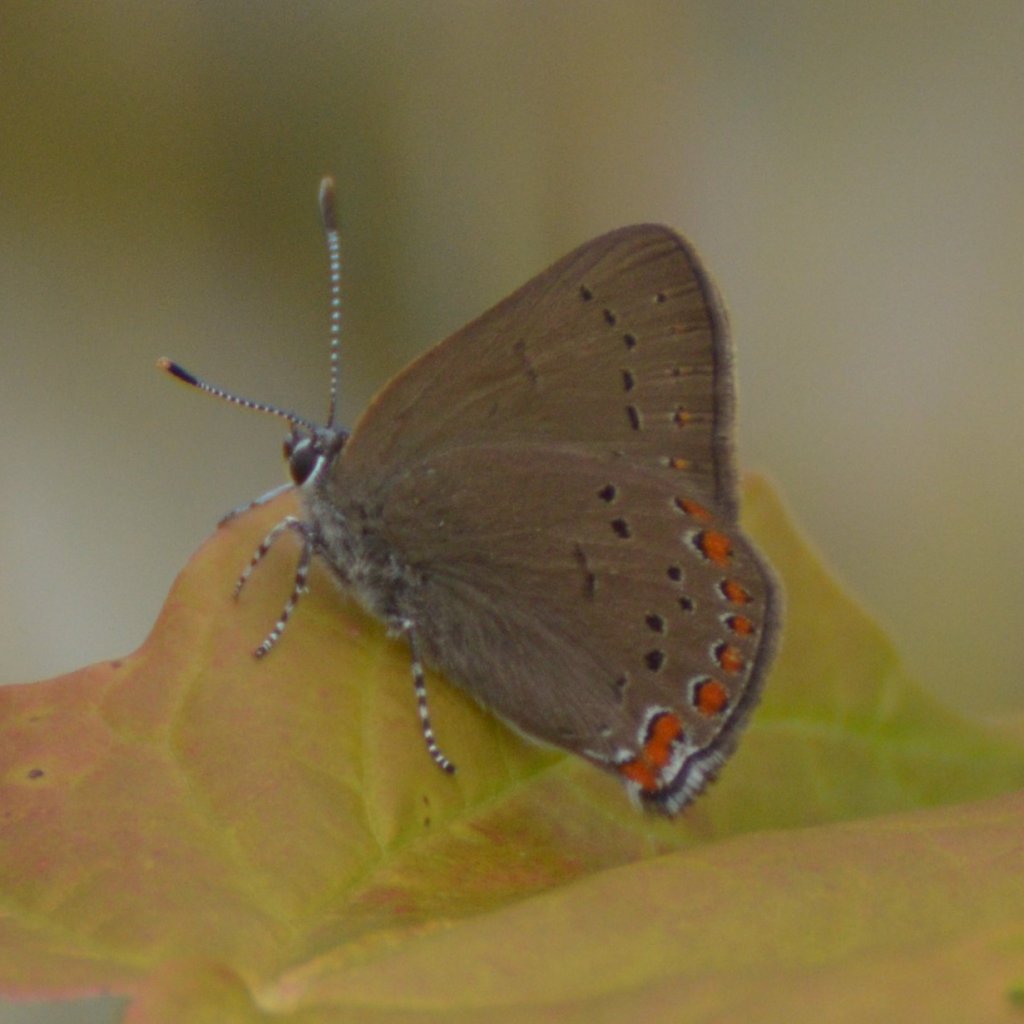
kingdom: Animalia
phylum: Arthropoda
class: Insecta
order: Lepidoptera
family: Lycaenidae
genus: Harkenclenus
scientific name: Harkenclenus titus
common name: Coral Hairstreak
